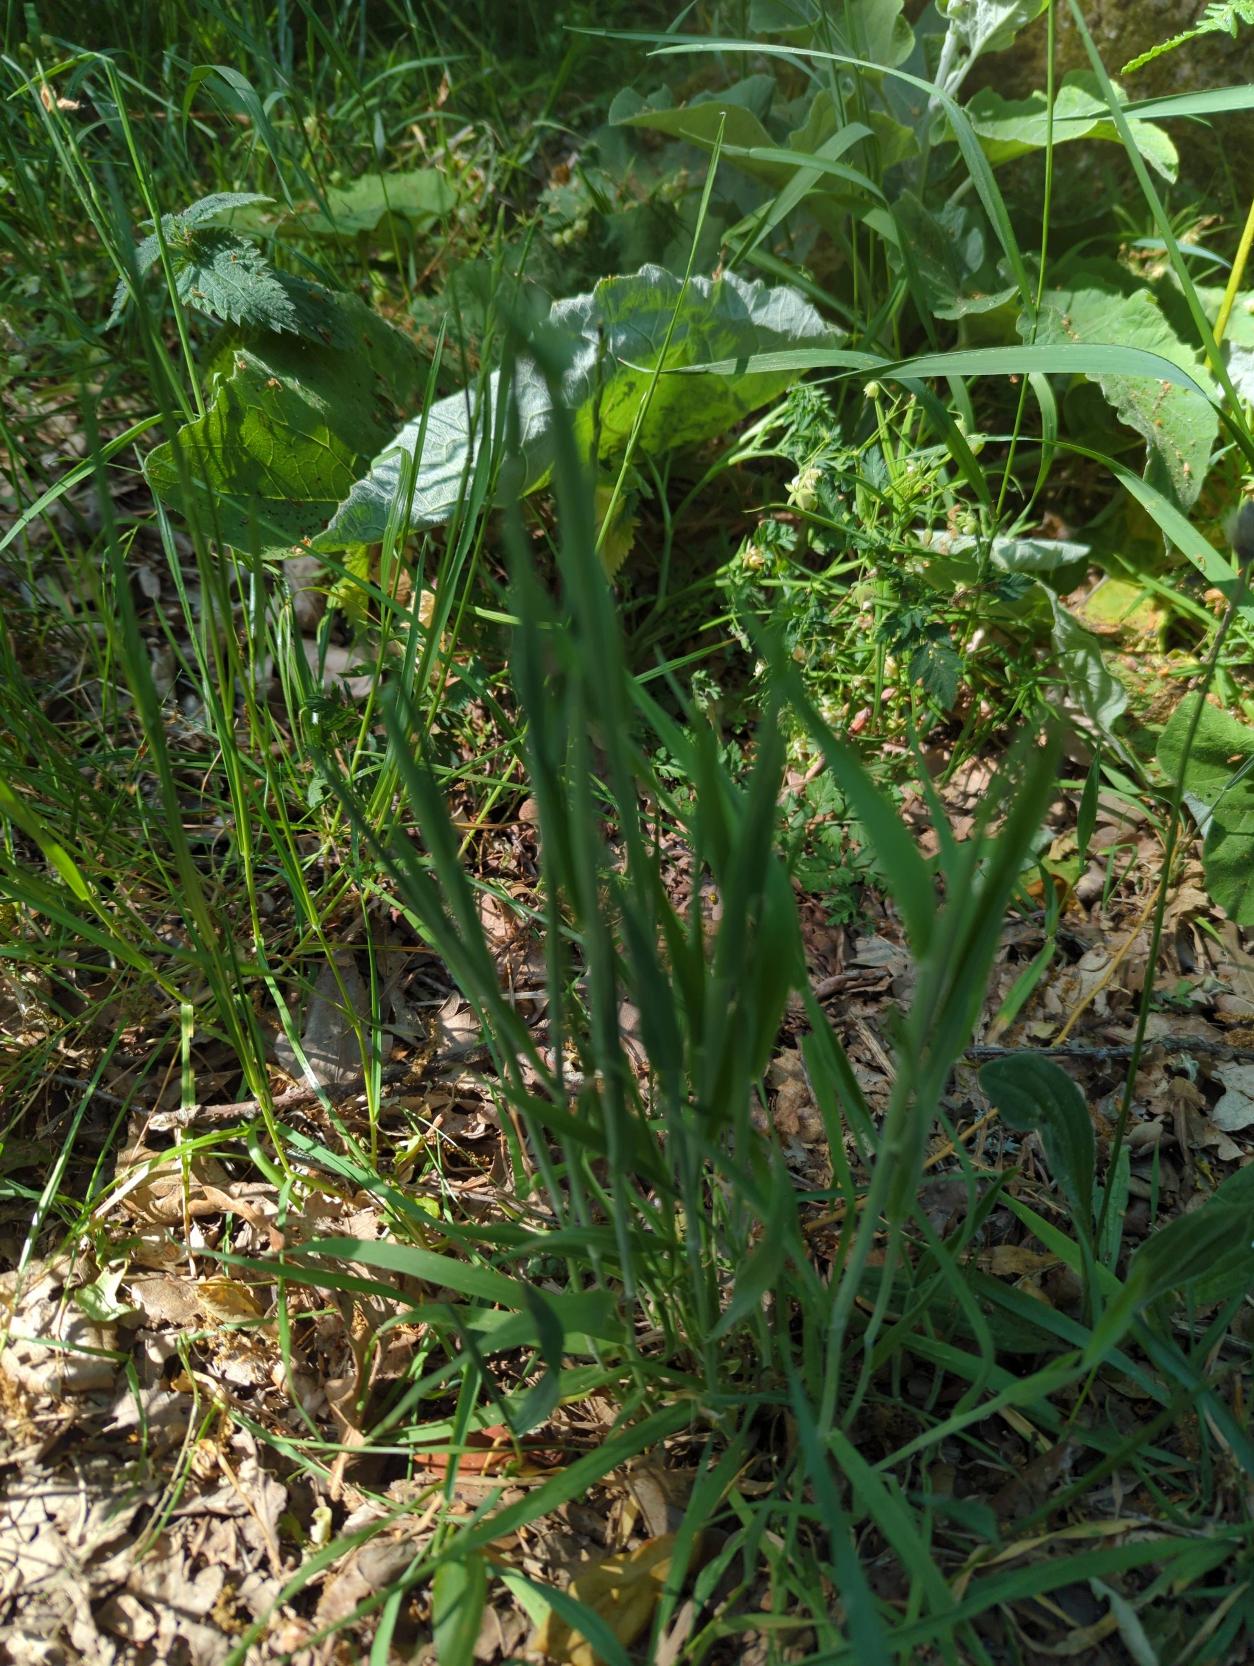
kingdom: Plantae
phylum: Tracheophyta
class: Liliopsida
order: Poales
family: Poaceae
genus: Holcus
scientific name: Holcus lanatus
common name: Fløjlsgræs
